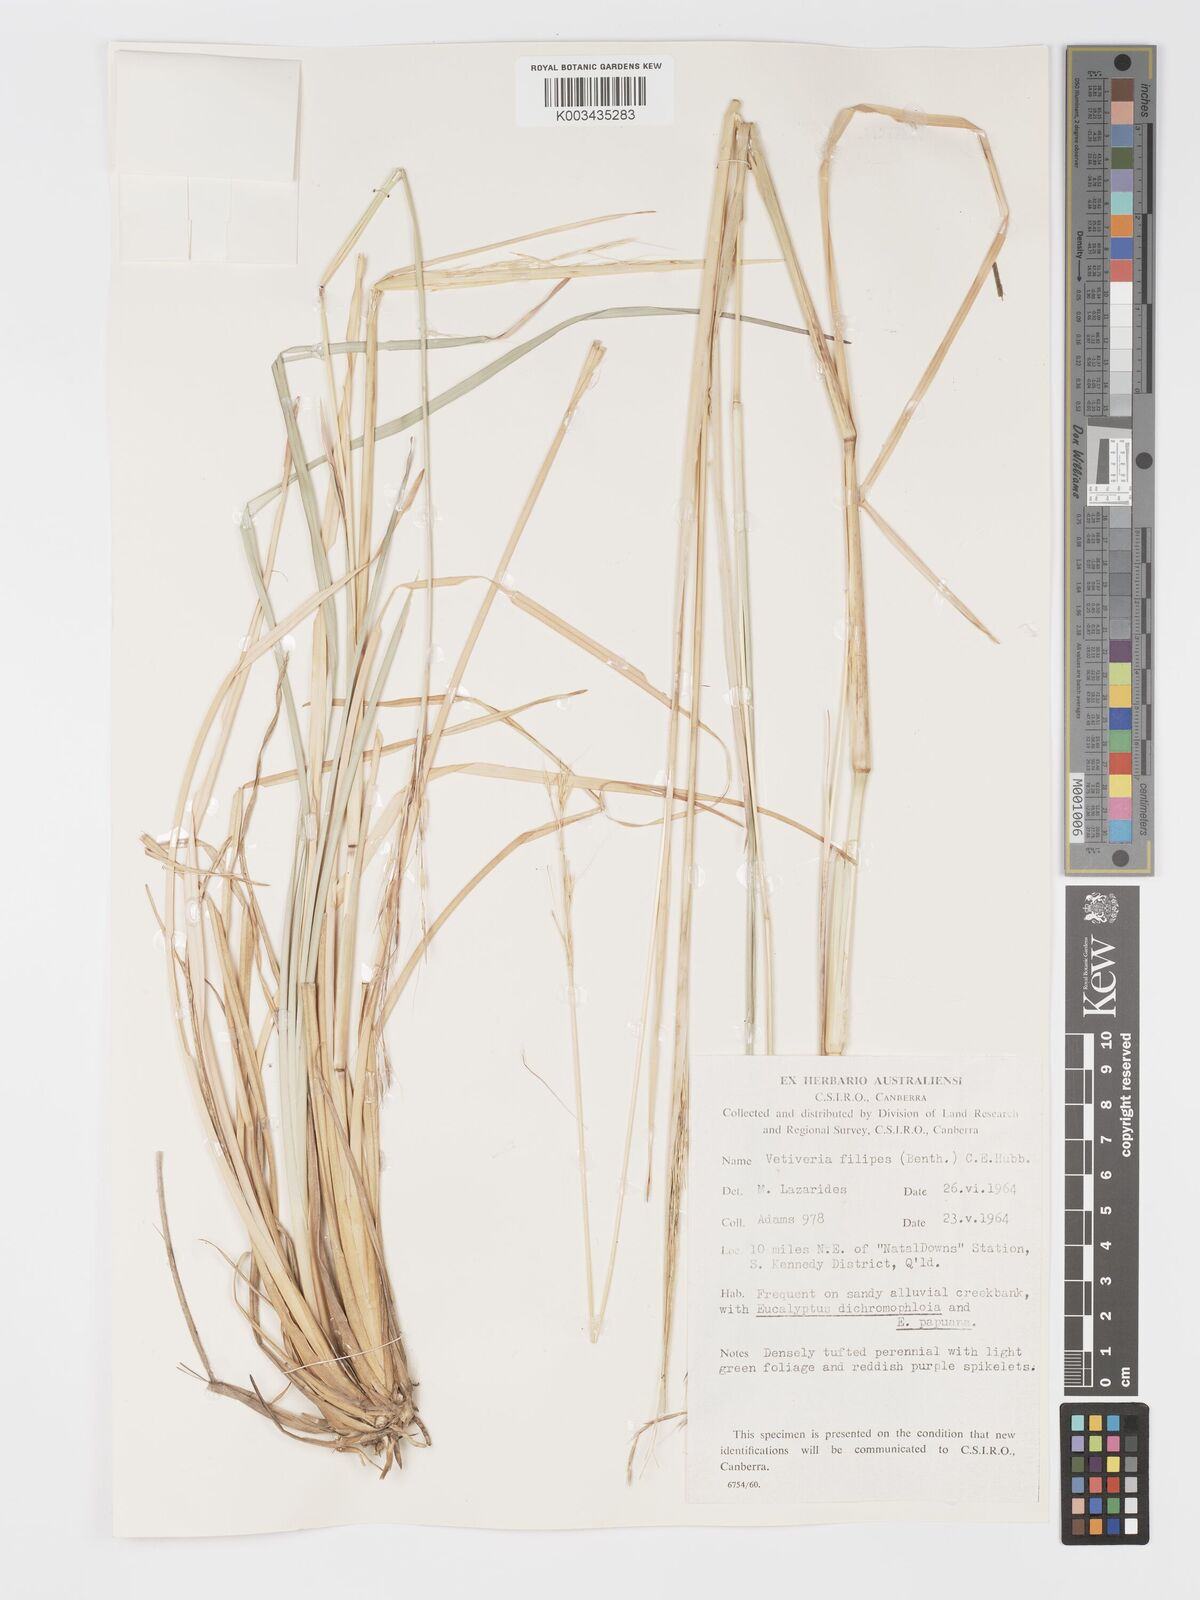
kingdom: Plantae
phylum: Tracheophyta
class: Liliopsida
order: Poales
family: Poaceae
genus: Chrysopogon
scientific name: Chrysopogon filipes
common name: Australian vetiver
